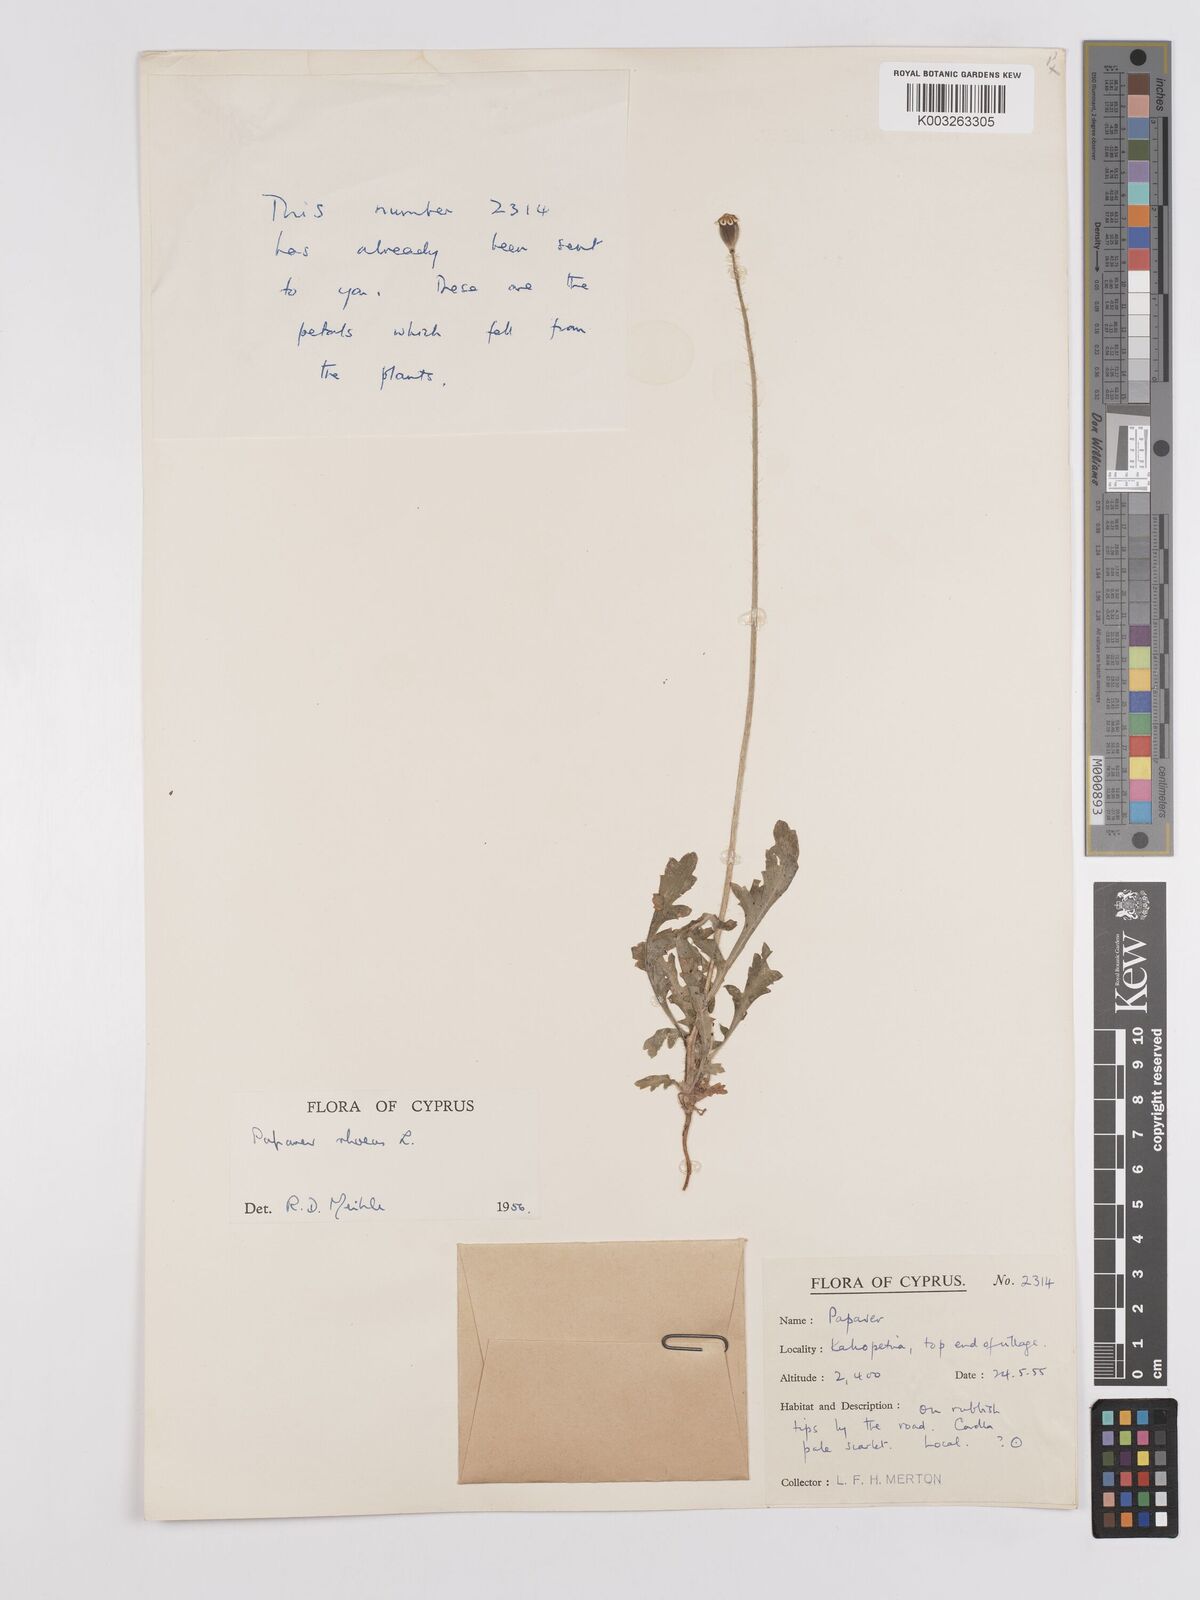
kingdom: Plantae
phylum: Tracheophyta
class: Magnoliopsida
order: Ranunculales
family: Papaveraceae
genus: Papaver
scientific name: Papaver rhoeas
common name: Corn poppy
